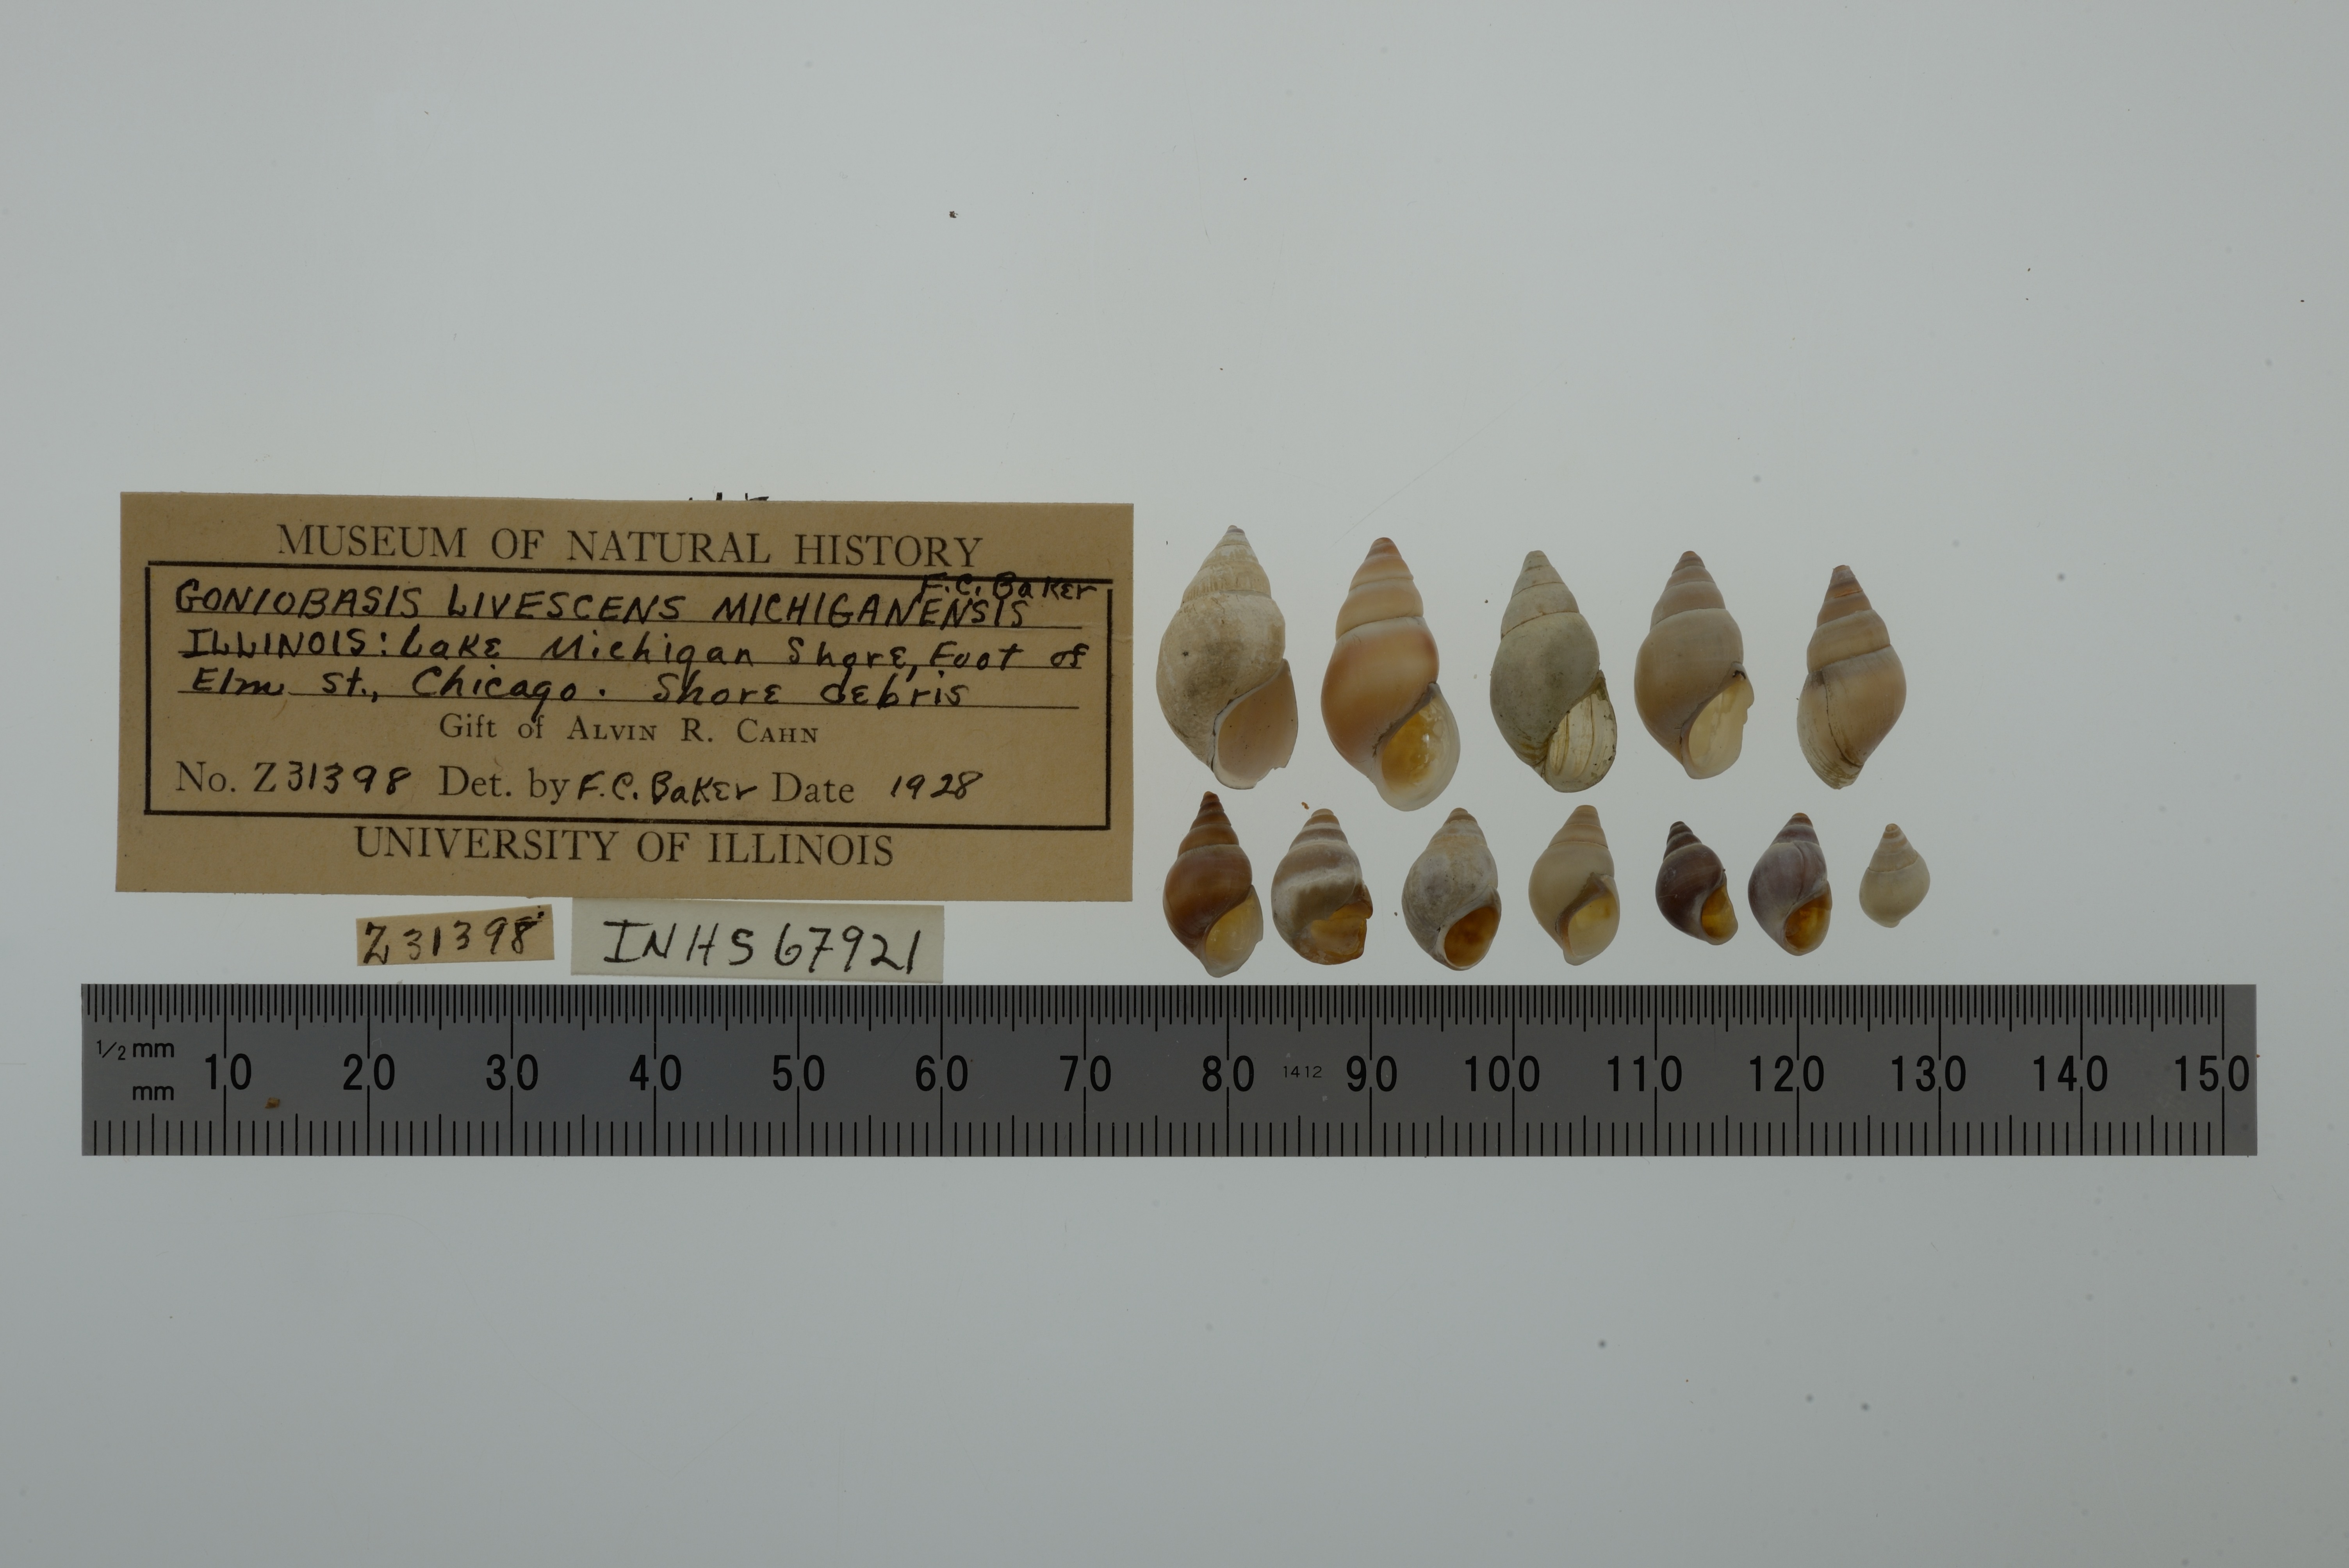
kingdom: Animalia
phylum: Mollusca
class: Gastropoda
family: Pleuroceridae
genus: Elimia
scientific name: Elimia livescens
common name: Liver elimia
